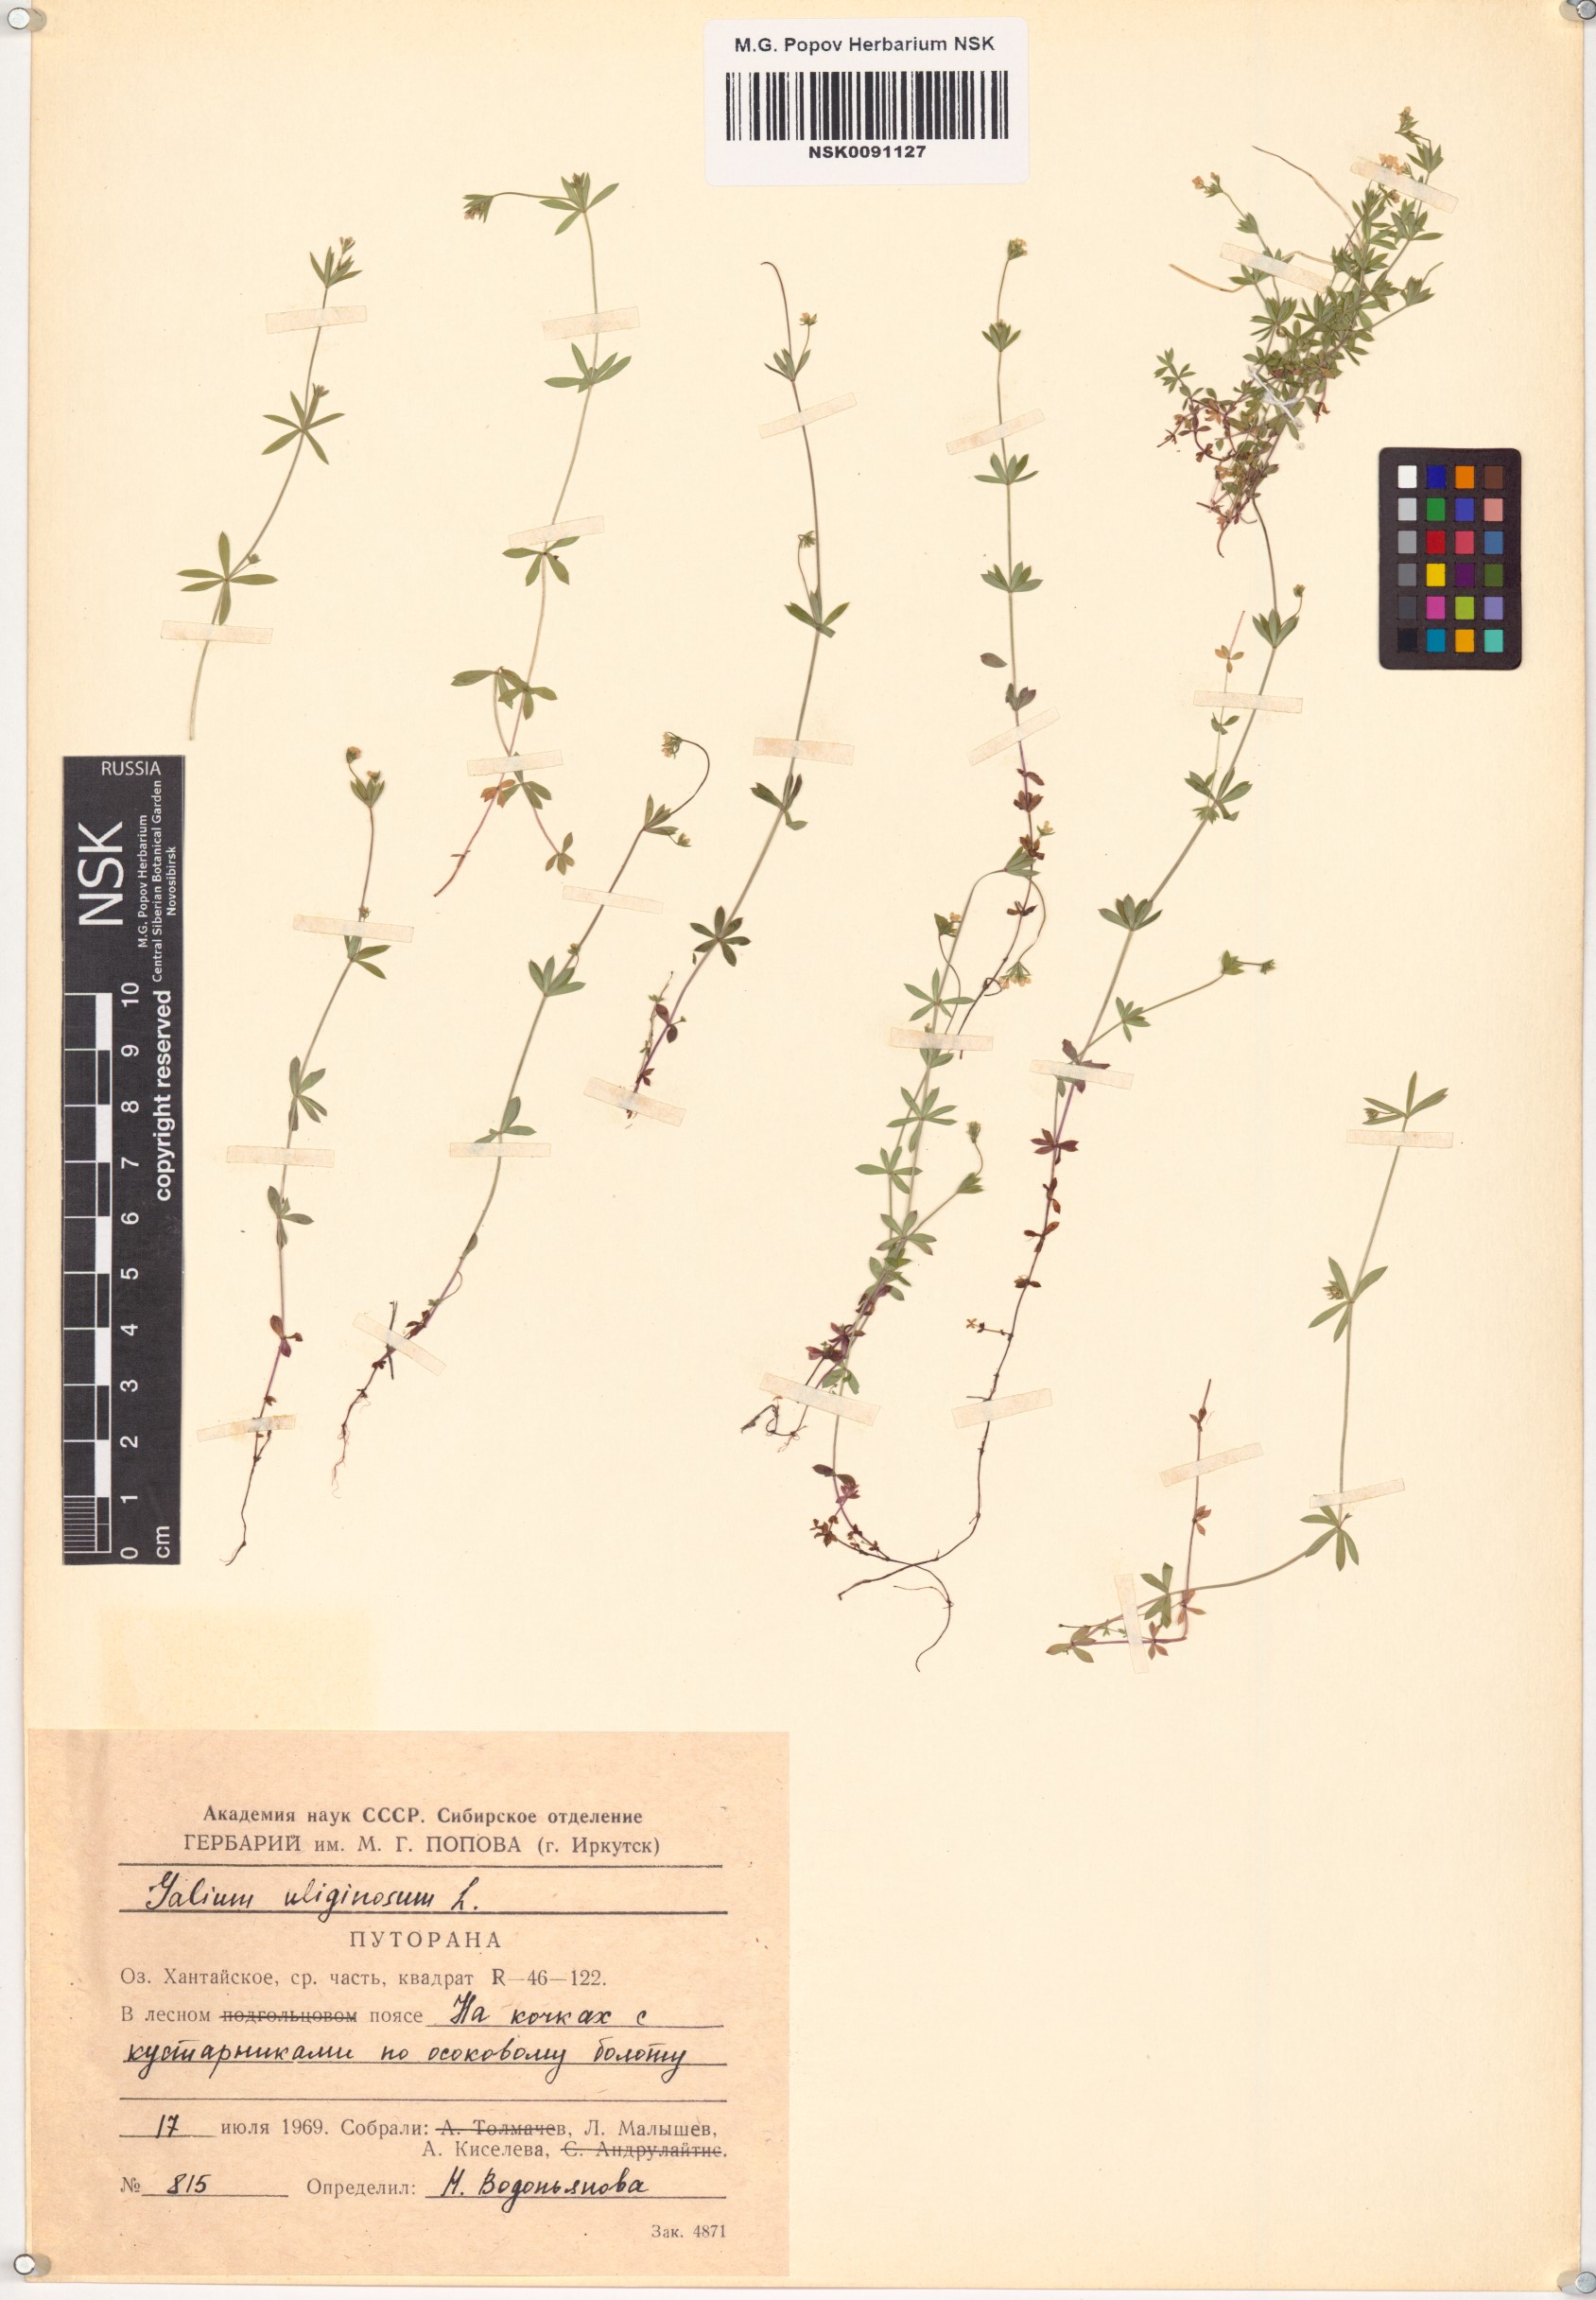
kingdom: Plantae
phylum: Tracheophyta
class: Magnoliopsida
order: Gentianales
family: Rubiaceae
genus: Galium
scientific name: Galium uliginosum
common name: Fen bedstraw
